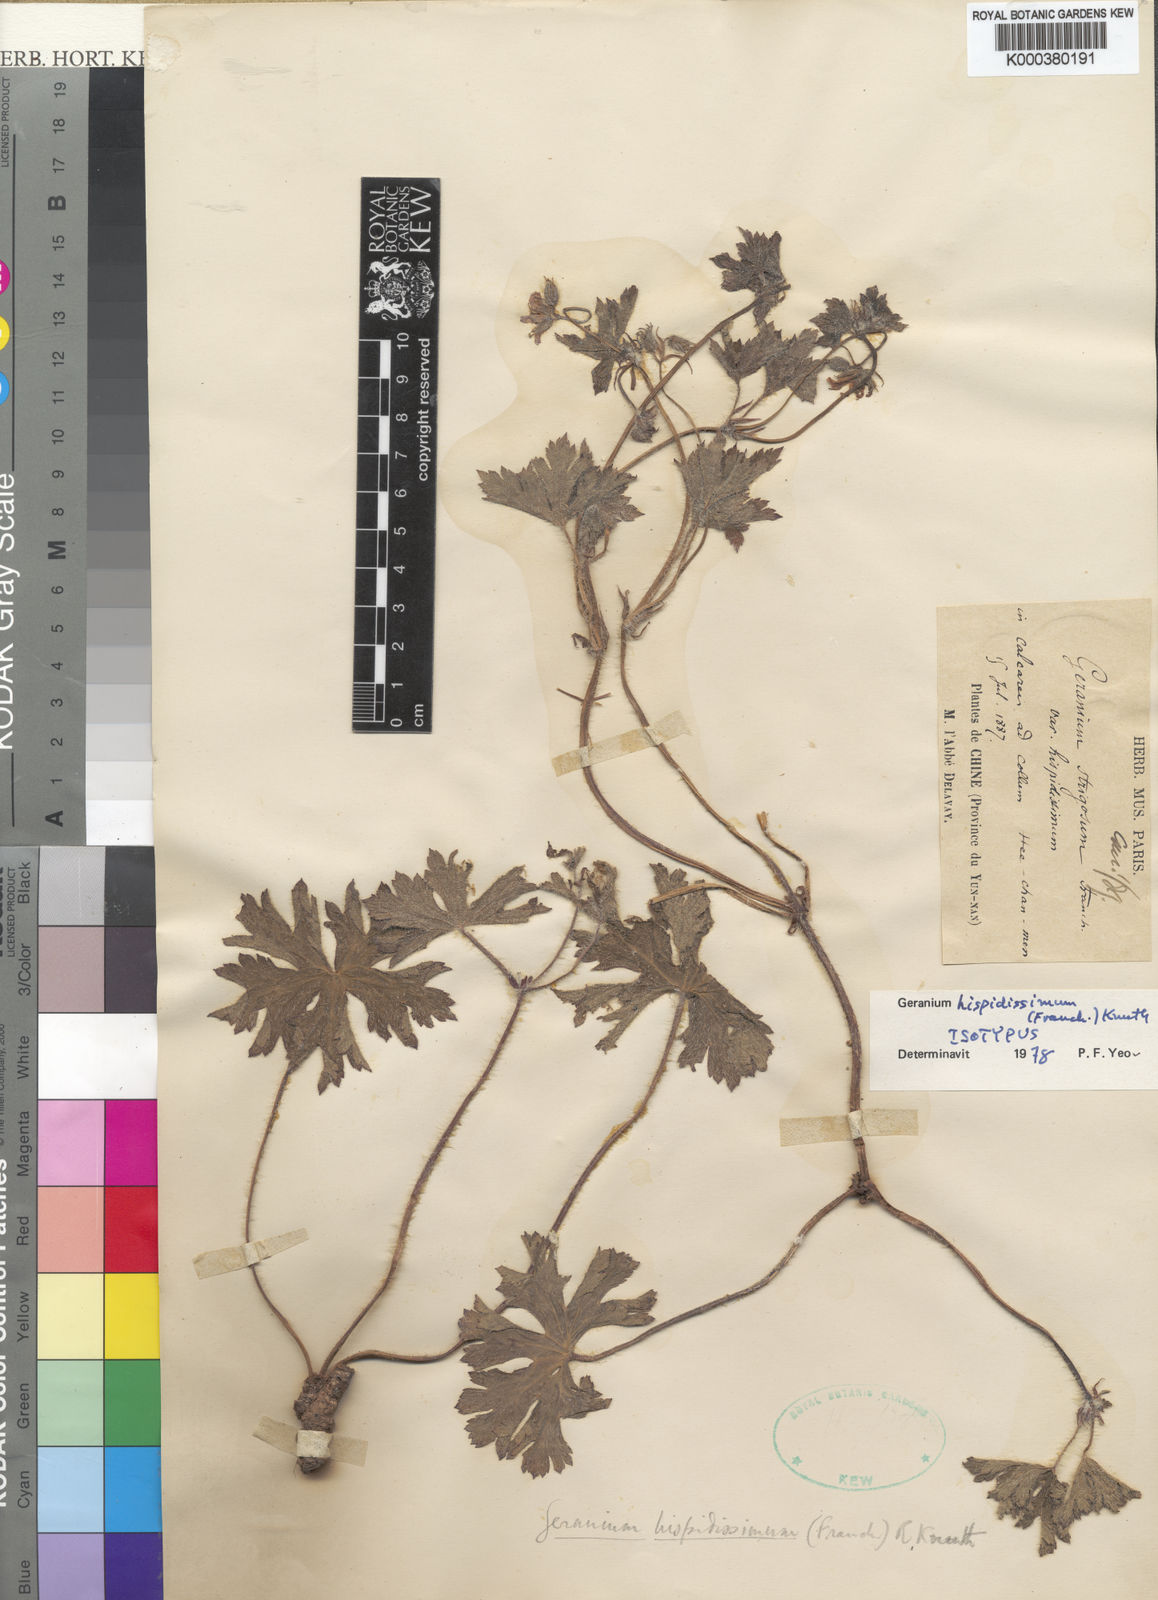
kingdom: Plantae
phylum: Tracheophyta
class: Magnoliopsida
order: Geraniales
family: Geraniaceae
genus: Geranium
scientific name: Geranium hispidissimum
